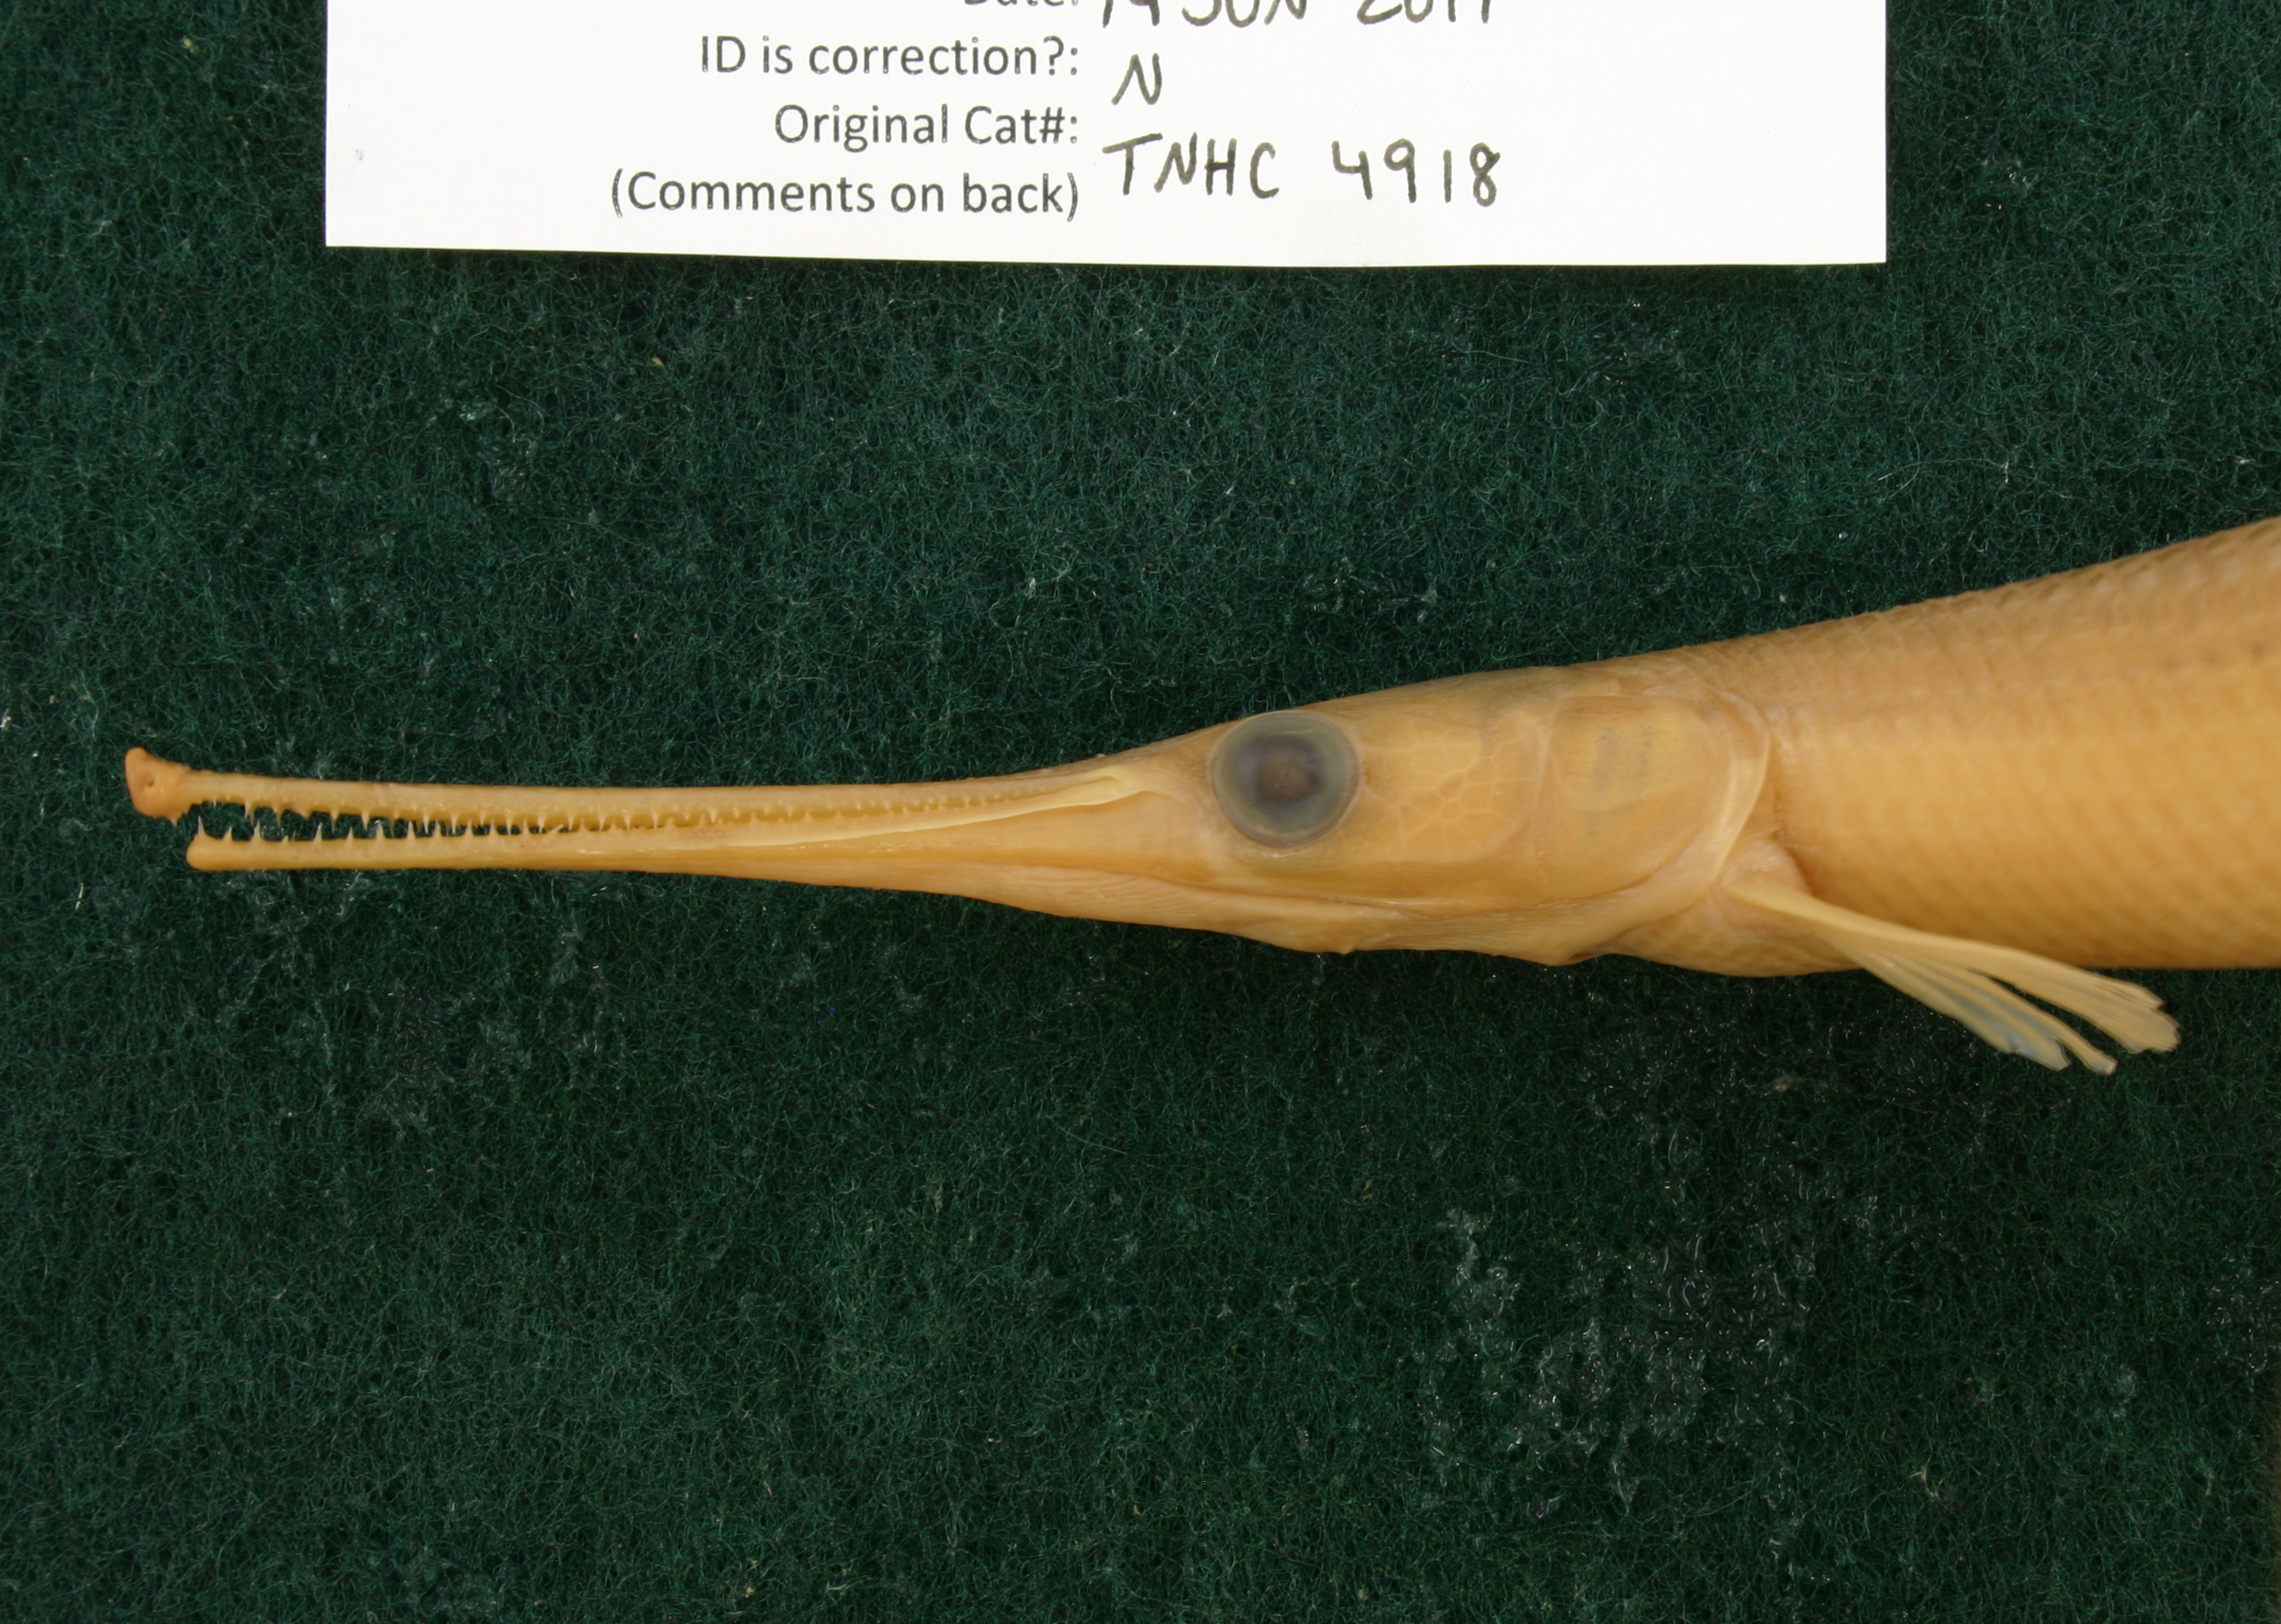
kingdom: Animalia
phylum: Chordata
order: Lepisosteiformes
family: Lepisosteidae
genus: Lepisosteus
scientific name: Lepisosteus osseus
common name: Longnose gar
